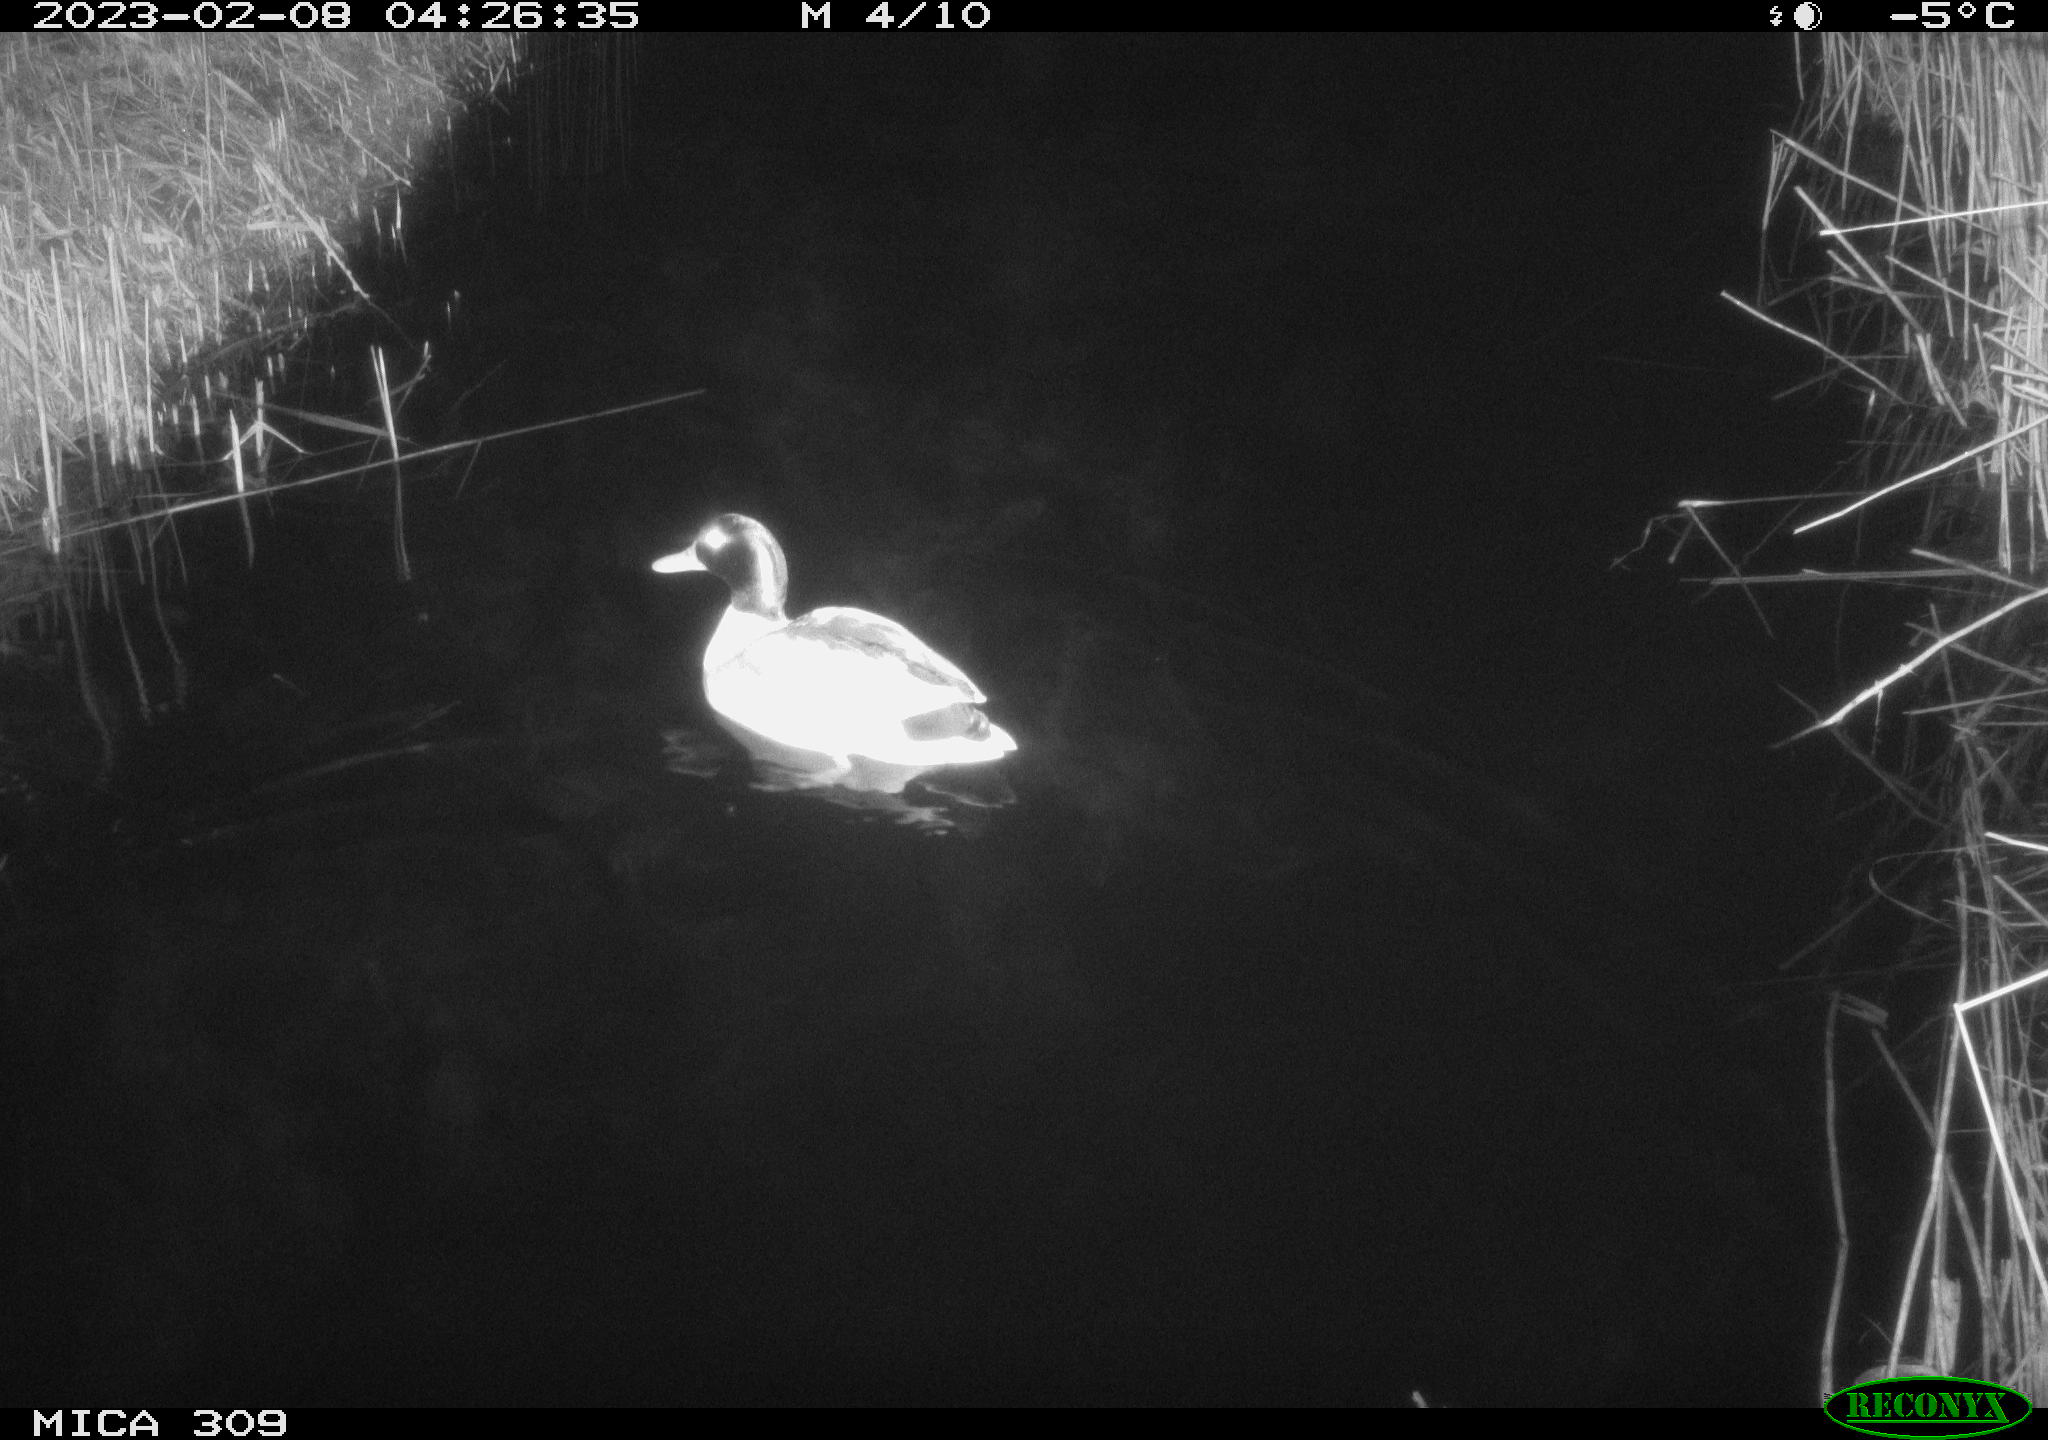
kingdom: Animalia
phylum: Chordata
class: Aves
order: Anseriformes
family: Anatidae
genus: Anas
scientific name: Anas
